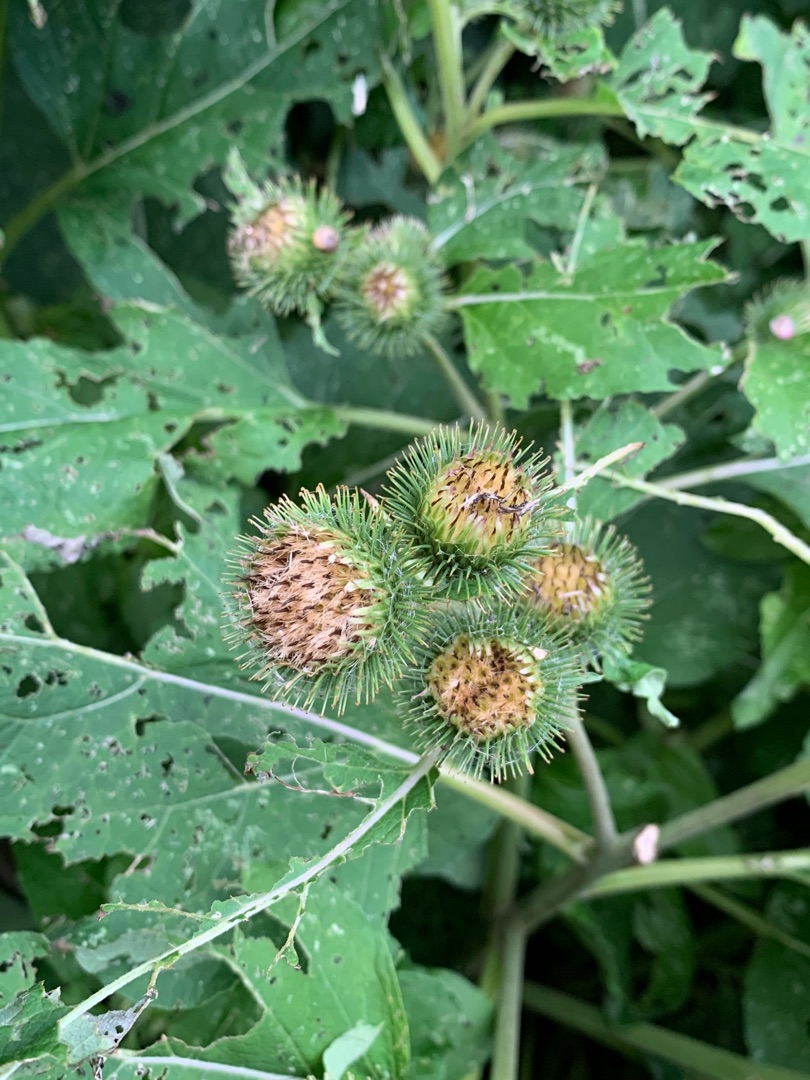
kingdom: Plantae
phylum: Tracheophyta
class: Magnoliopsida
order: Asterales
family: Asteraceae
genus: Arctium
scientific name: Arctium lappa
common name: Glat burre
